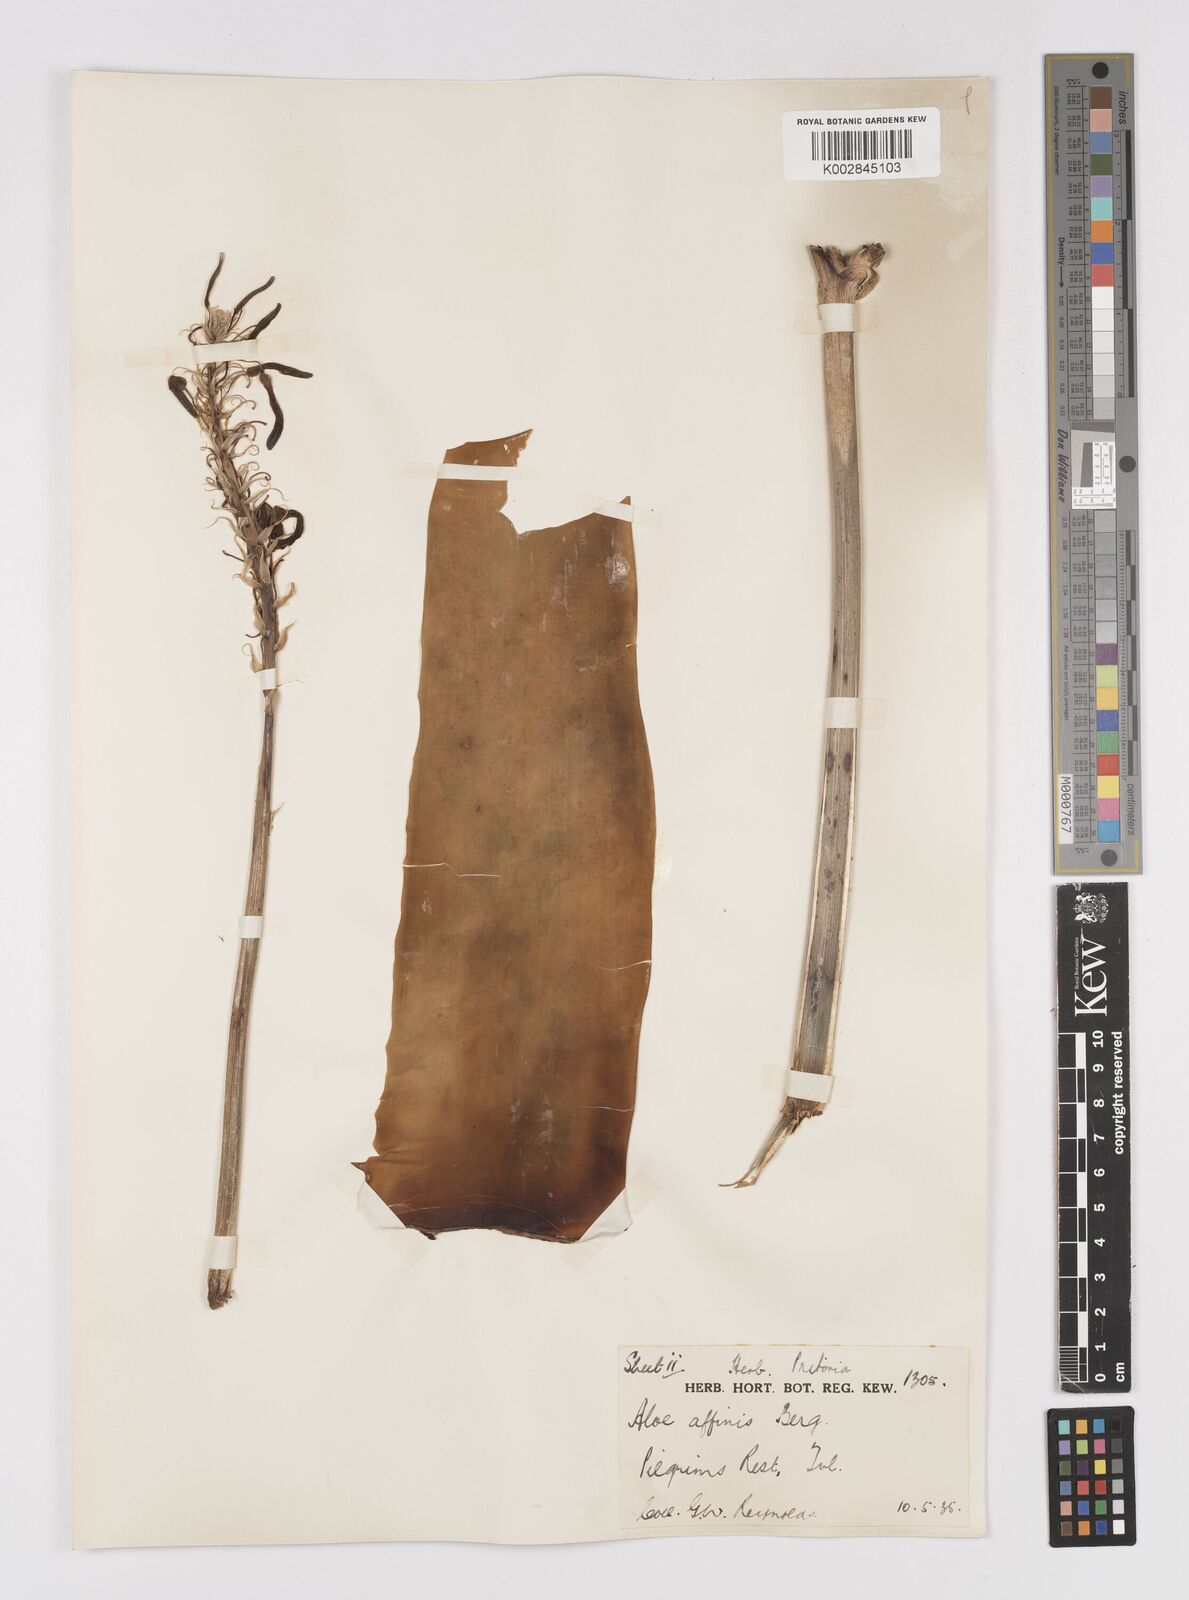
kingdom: Plantae
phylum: Tracheophyta
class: Liliopsida
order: Asparagales
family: Asphodelaceae
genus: Aloe
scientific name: Aloe affinis
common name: Spotted aloe
